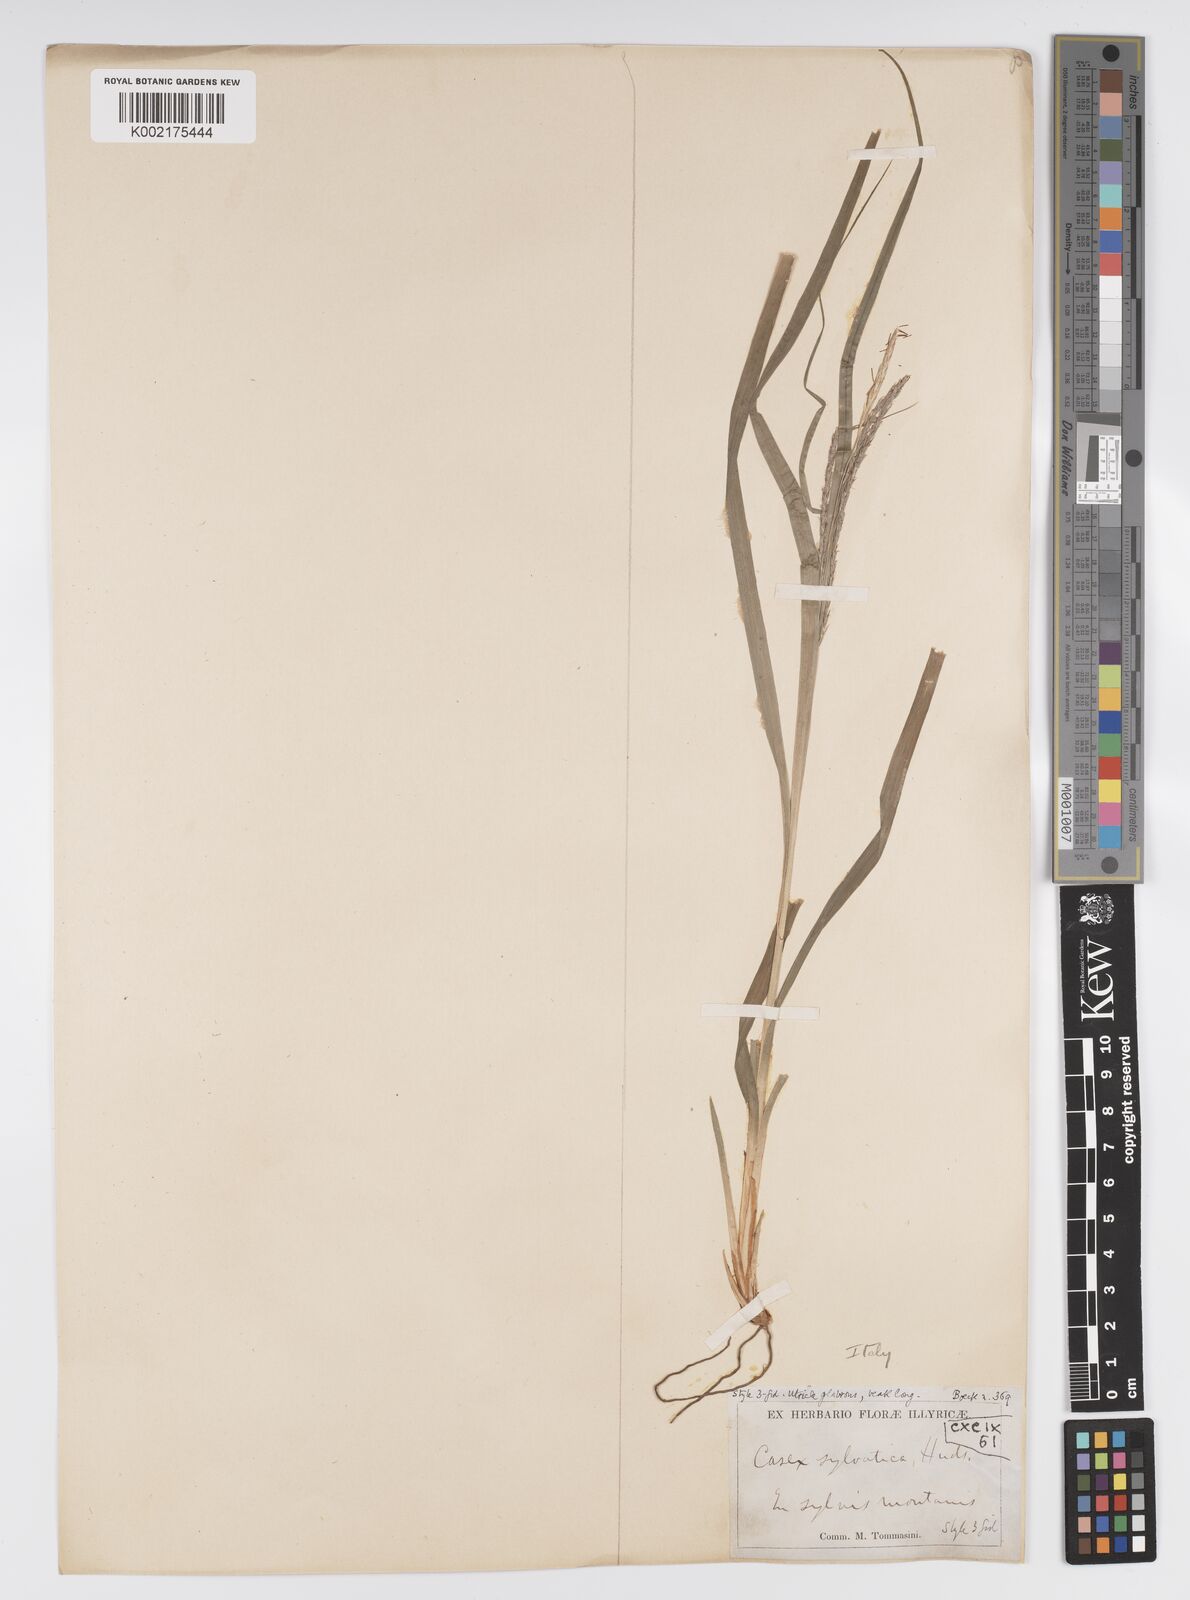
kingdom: Plantae
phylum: Tracheophyta
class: Liliopsida
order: Poales
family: Cyperaceae
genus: Carex
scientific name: Carex sylvatica
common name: Wood-sedge
